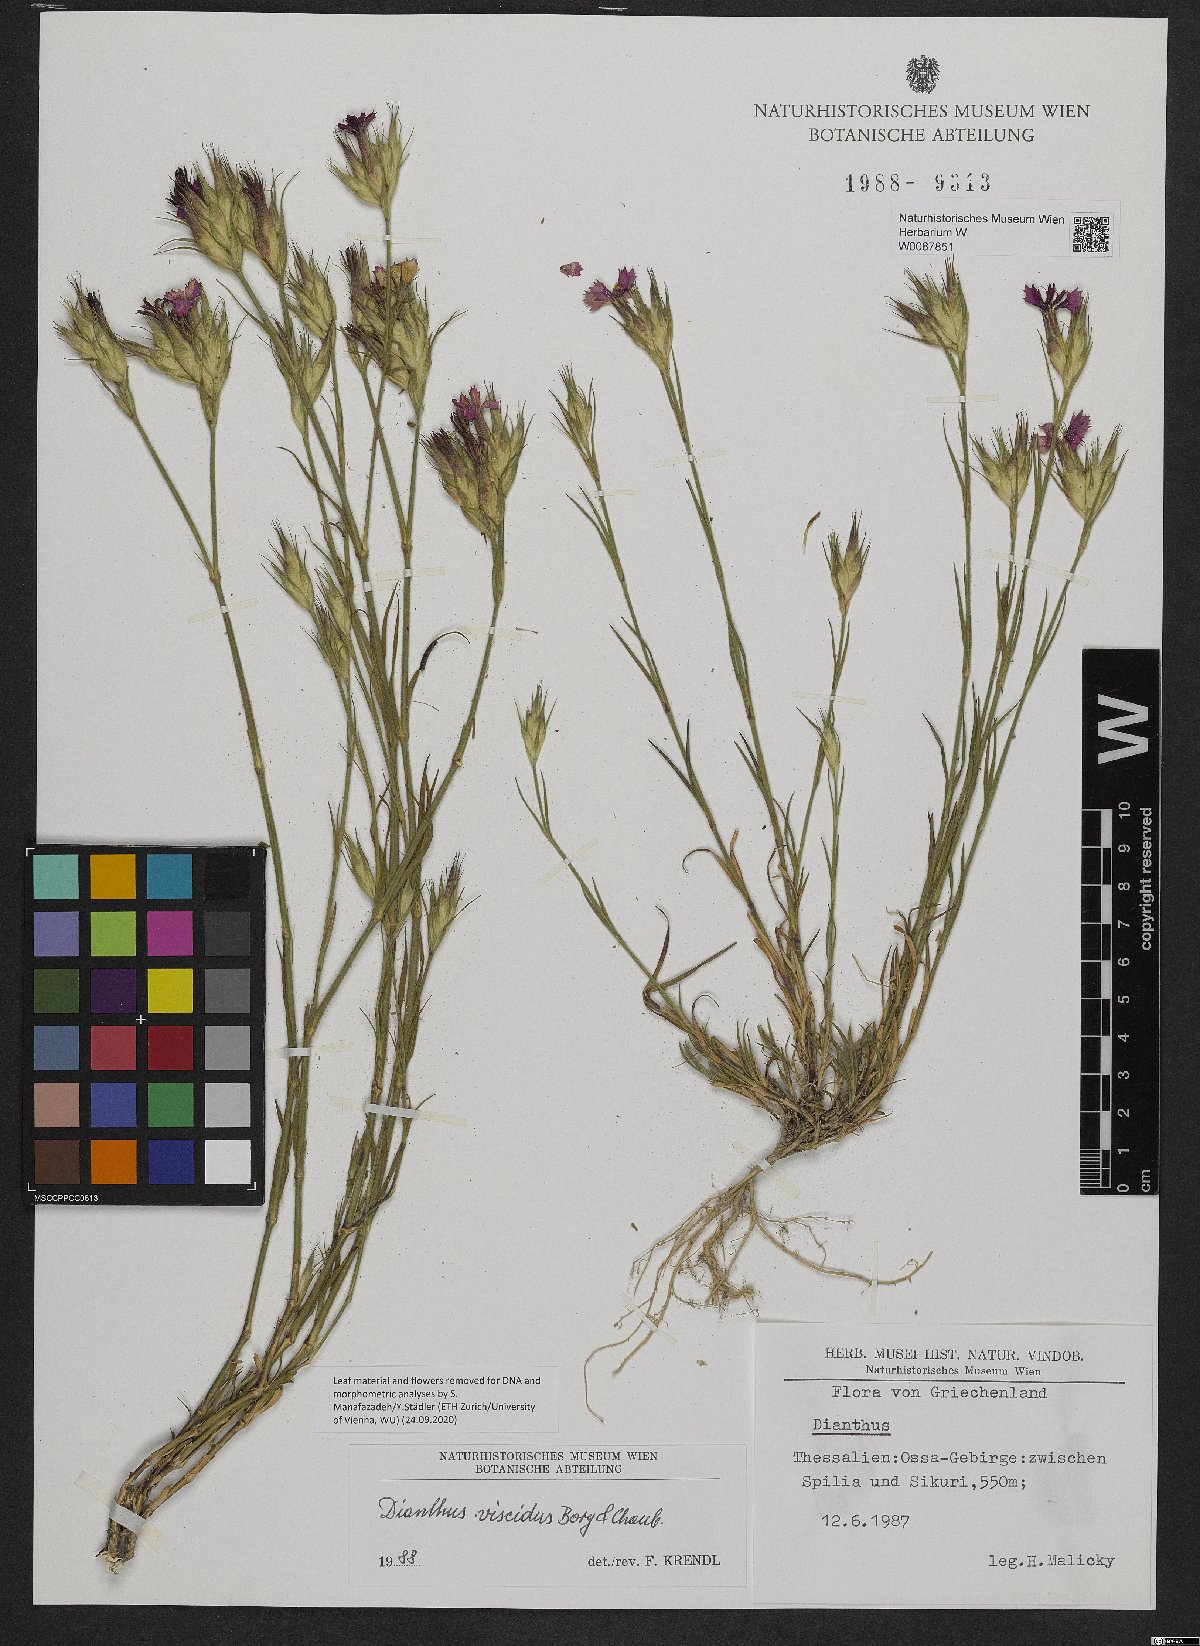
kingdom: Plantae
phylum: Tracheophyta
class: Magnoliopsida
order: Caryophyllales
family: Caryophyllaceae
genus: Dianthus
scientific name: Dianthus viscidus
